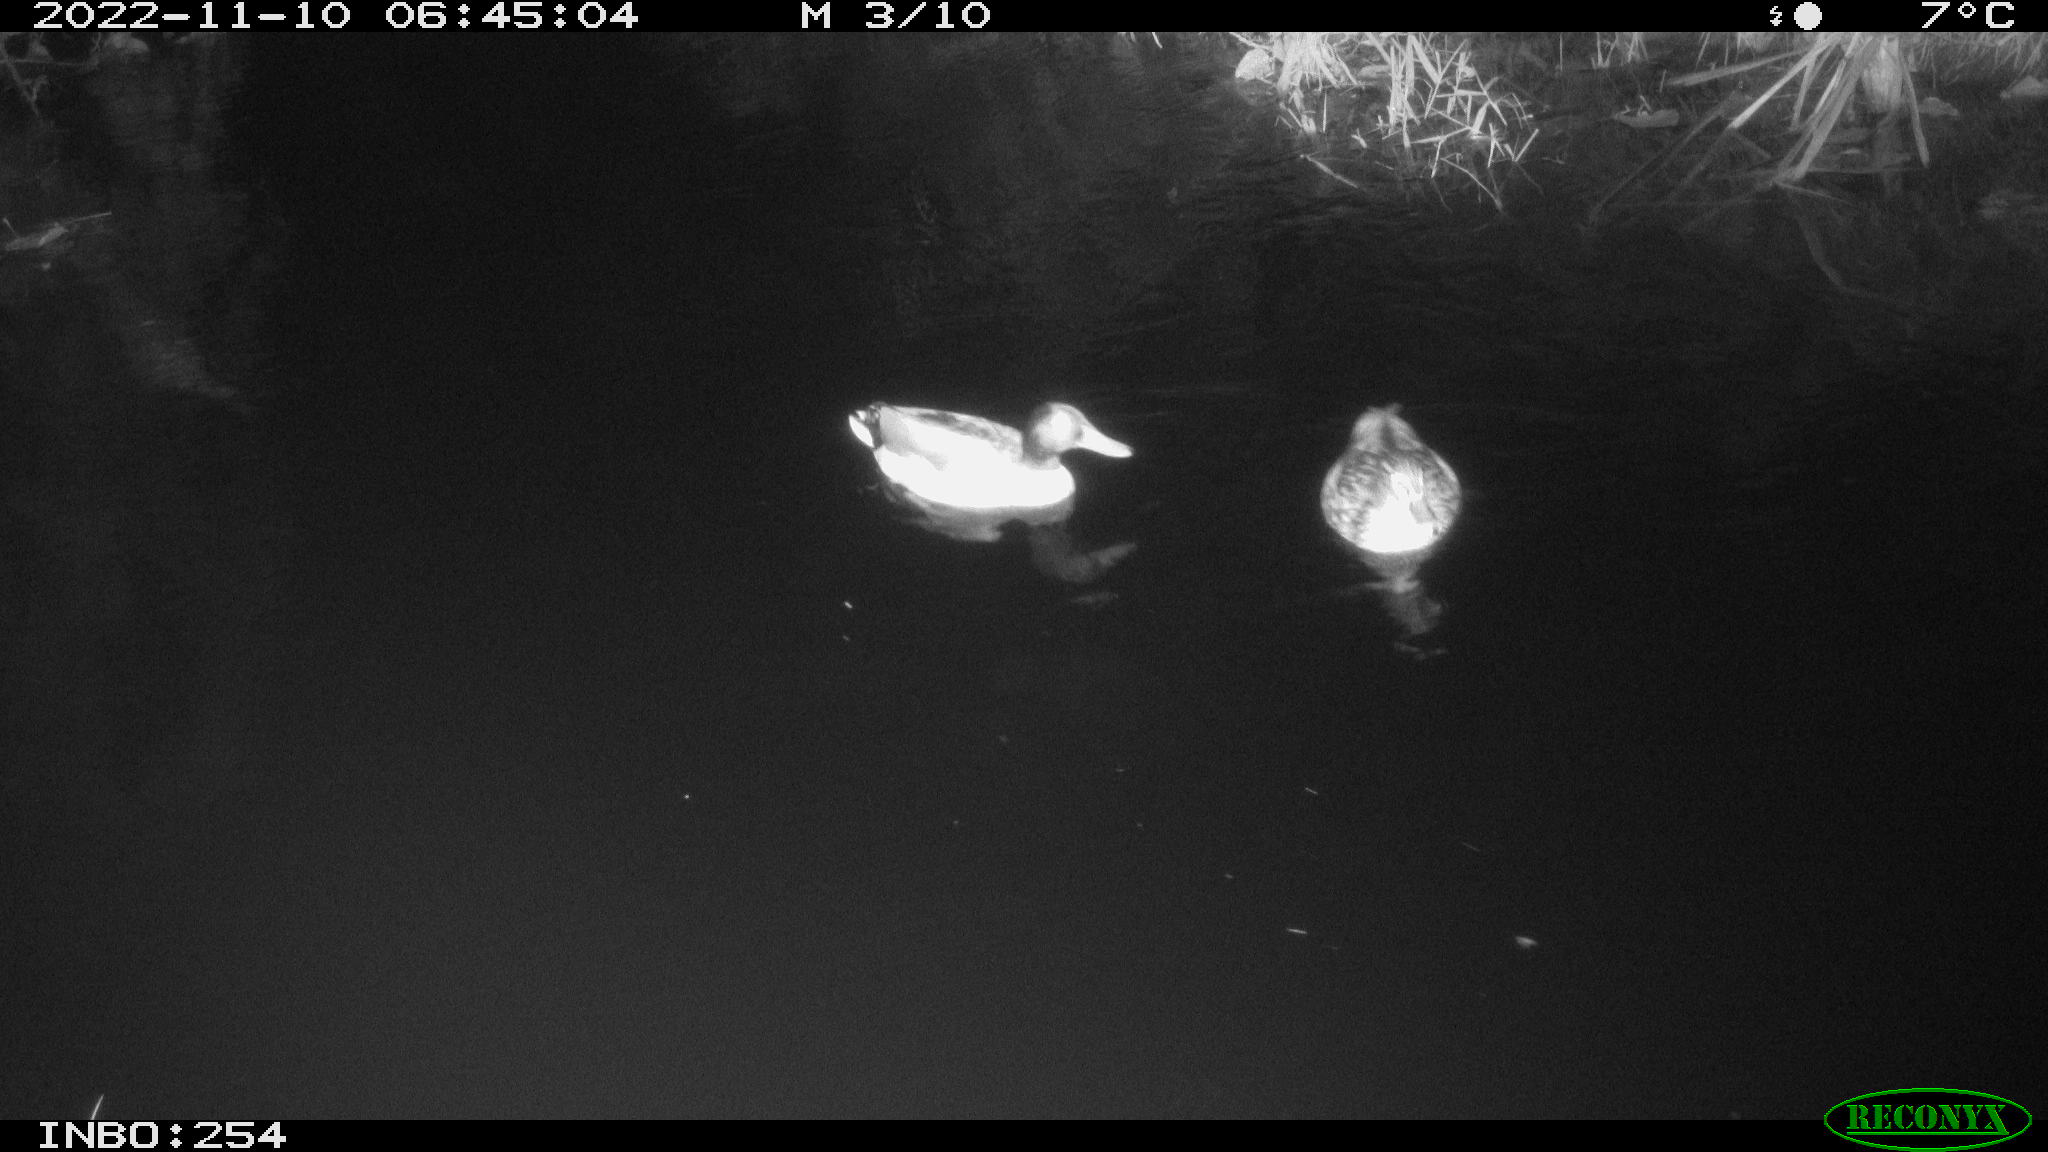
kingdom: Animalia
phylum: Chordata
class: Aves
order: Anseriformes
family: Anatidae
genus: Anas
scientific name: Anas
